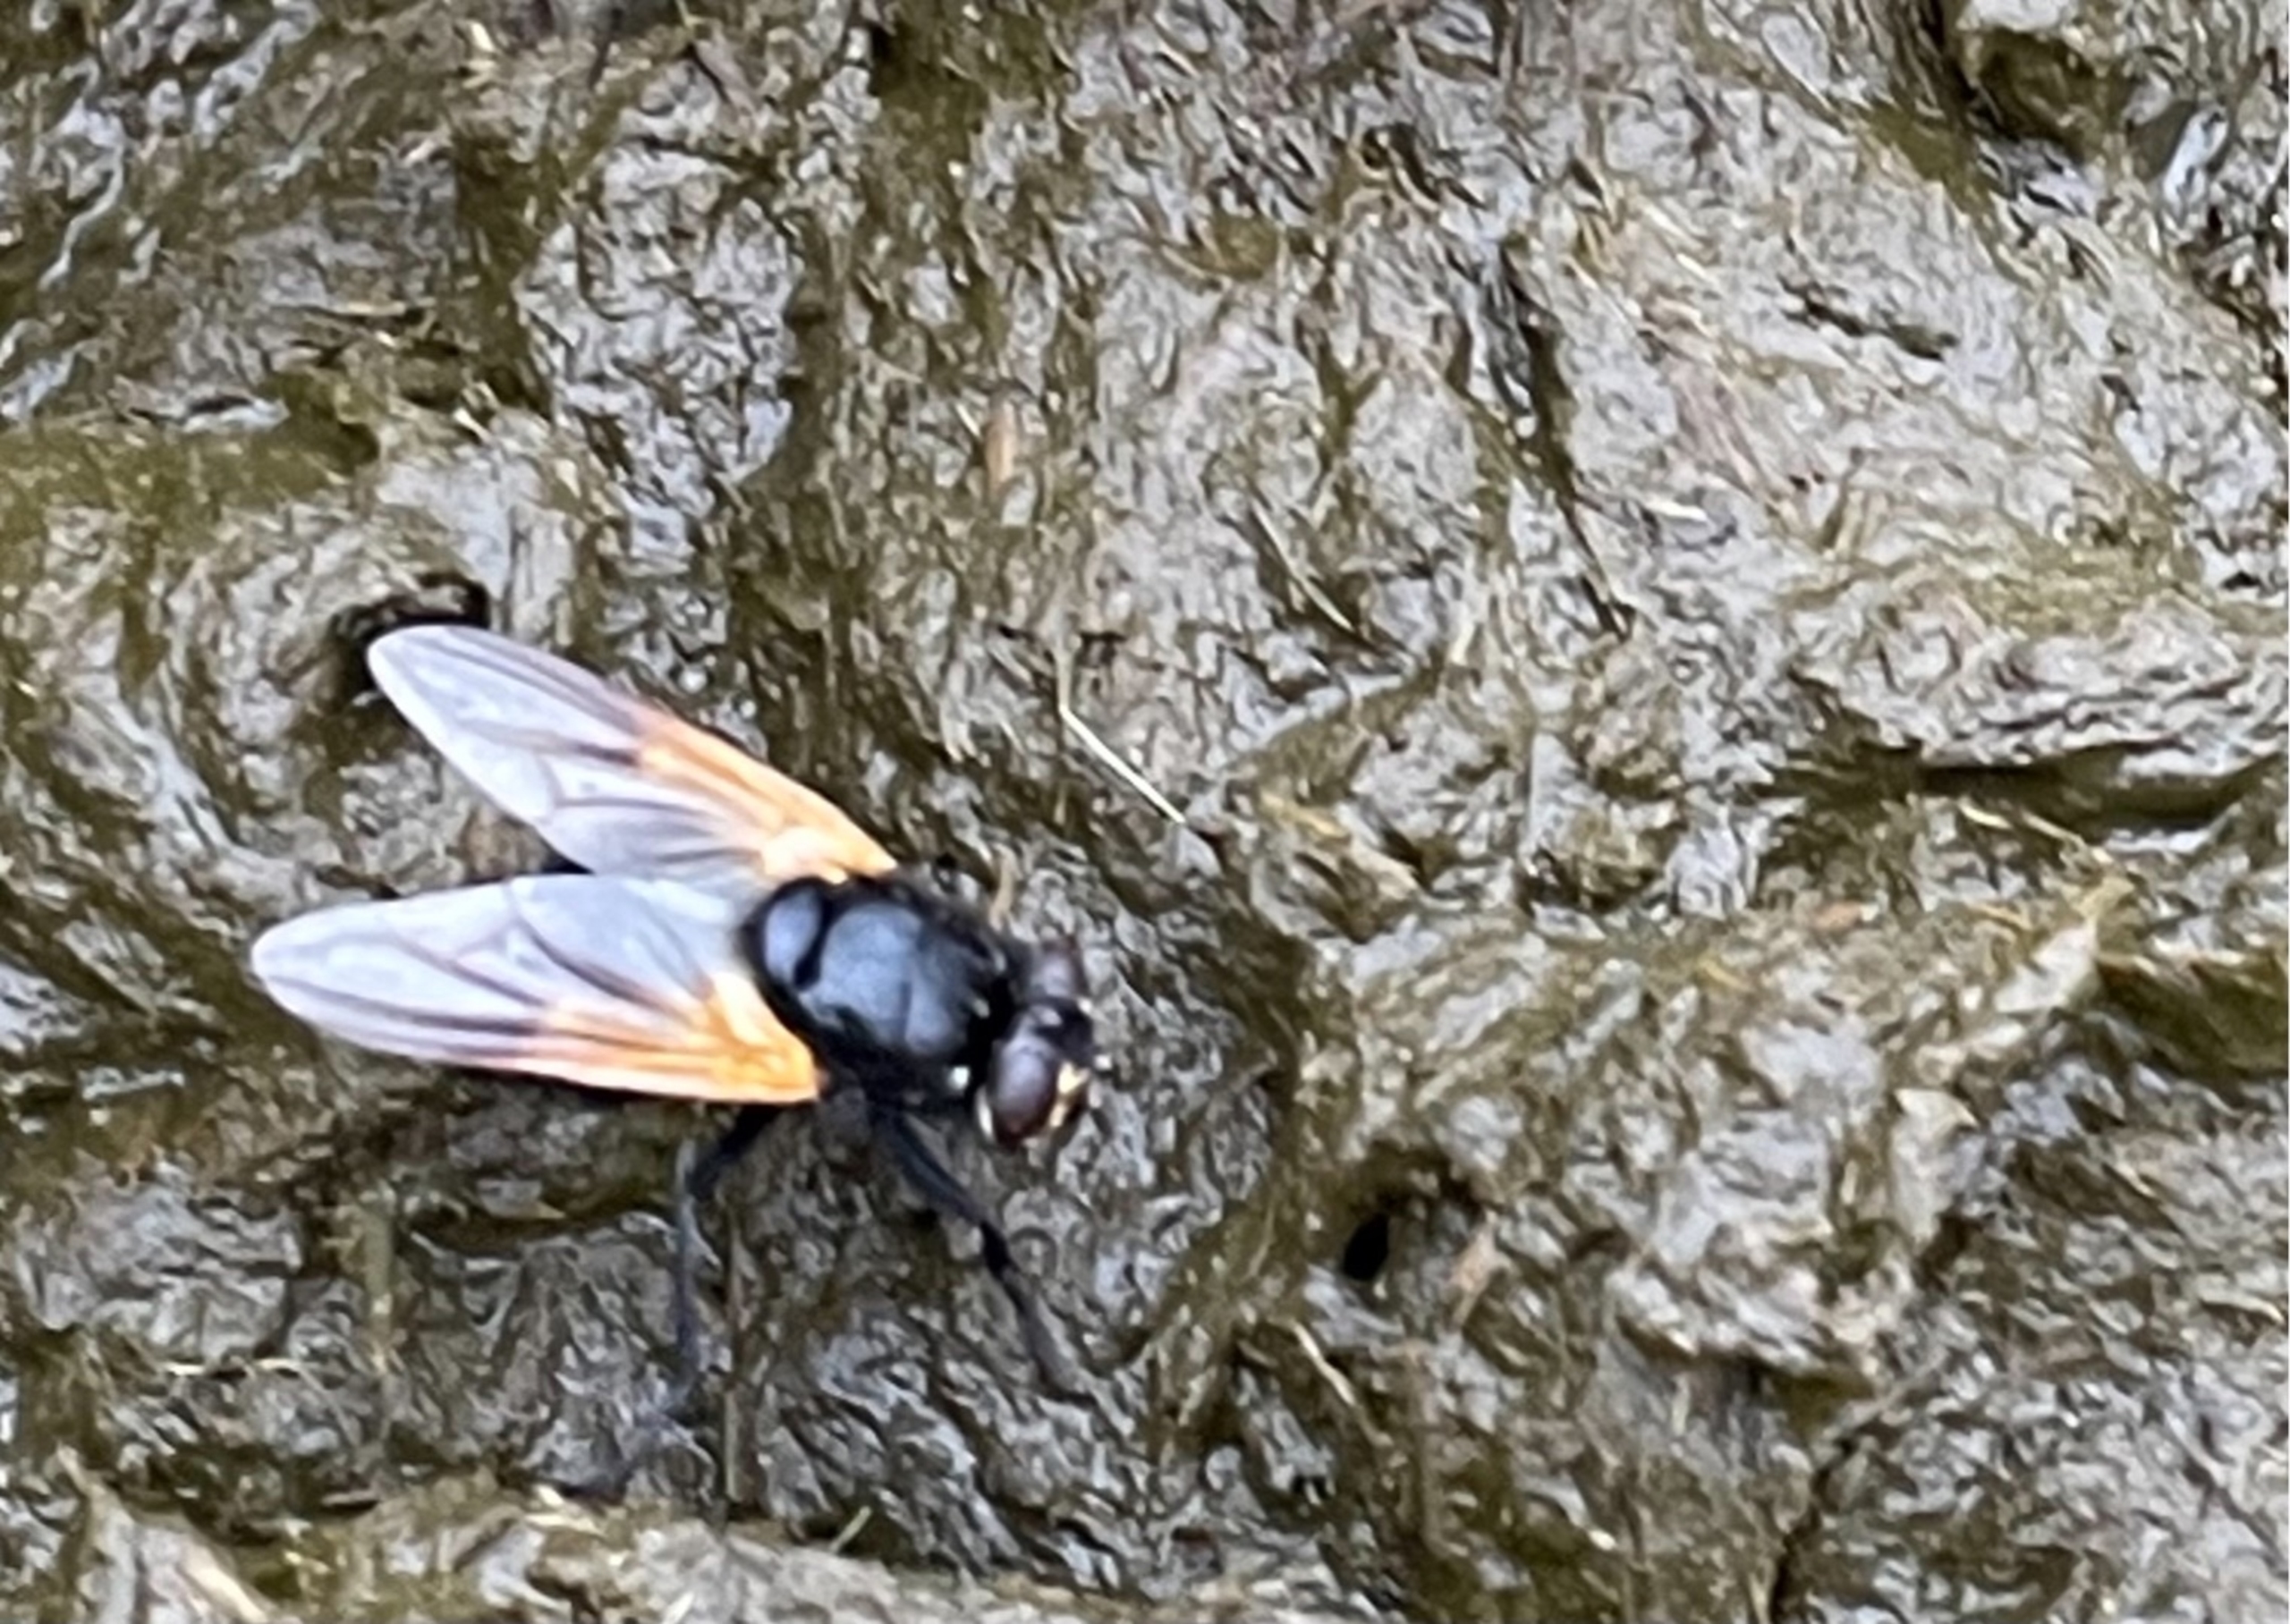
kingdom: Animalia
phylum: Arthropoda
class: Insecta
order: Diptera
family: Muscidae
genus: Mesembrina
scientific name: Mesembrina meridiana
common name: Gulvinget flue
